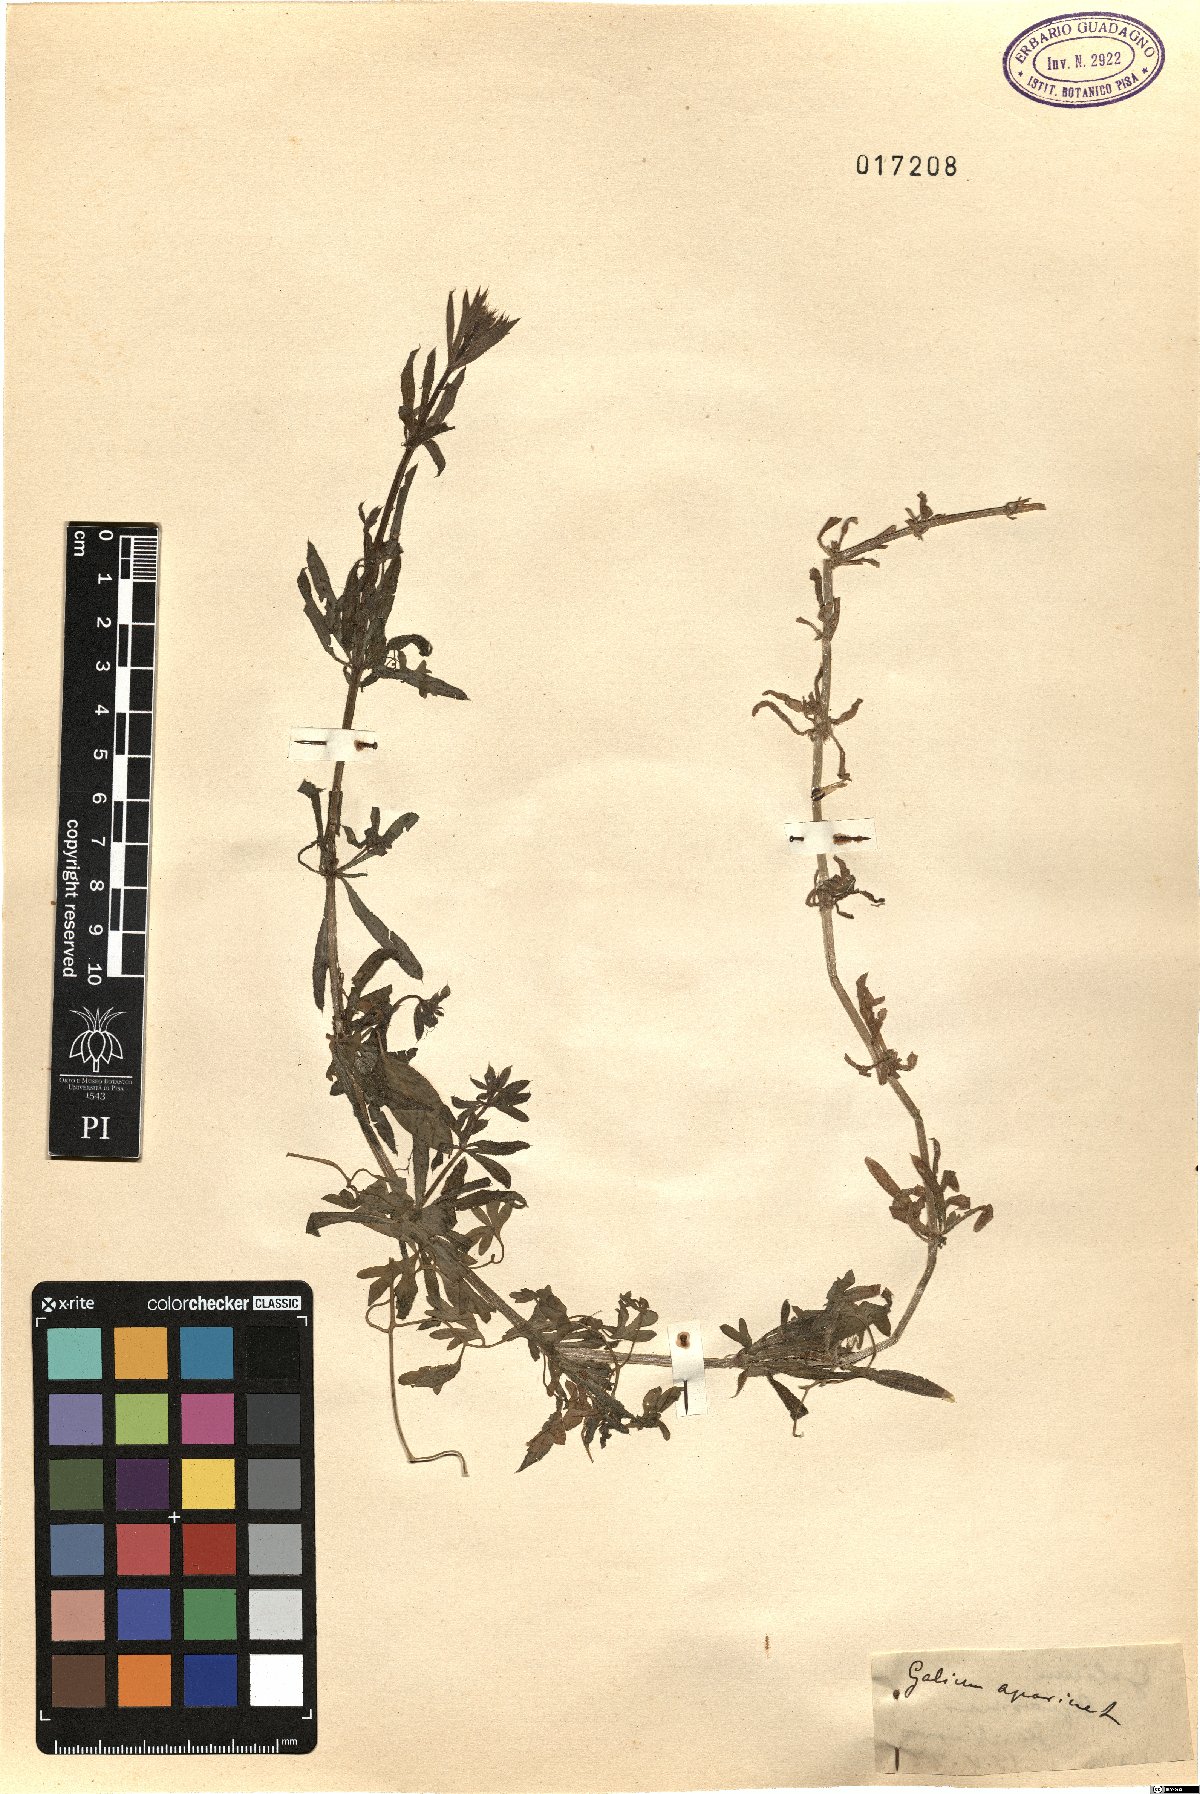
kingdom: Plantae
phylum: Tracheophyta
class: Magnoliopsida
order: Gentianales
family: Rubiaceae
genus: Galium
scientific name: Galium aparine
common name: Cleavers
